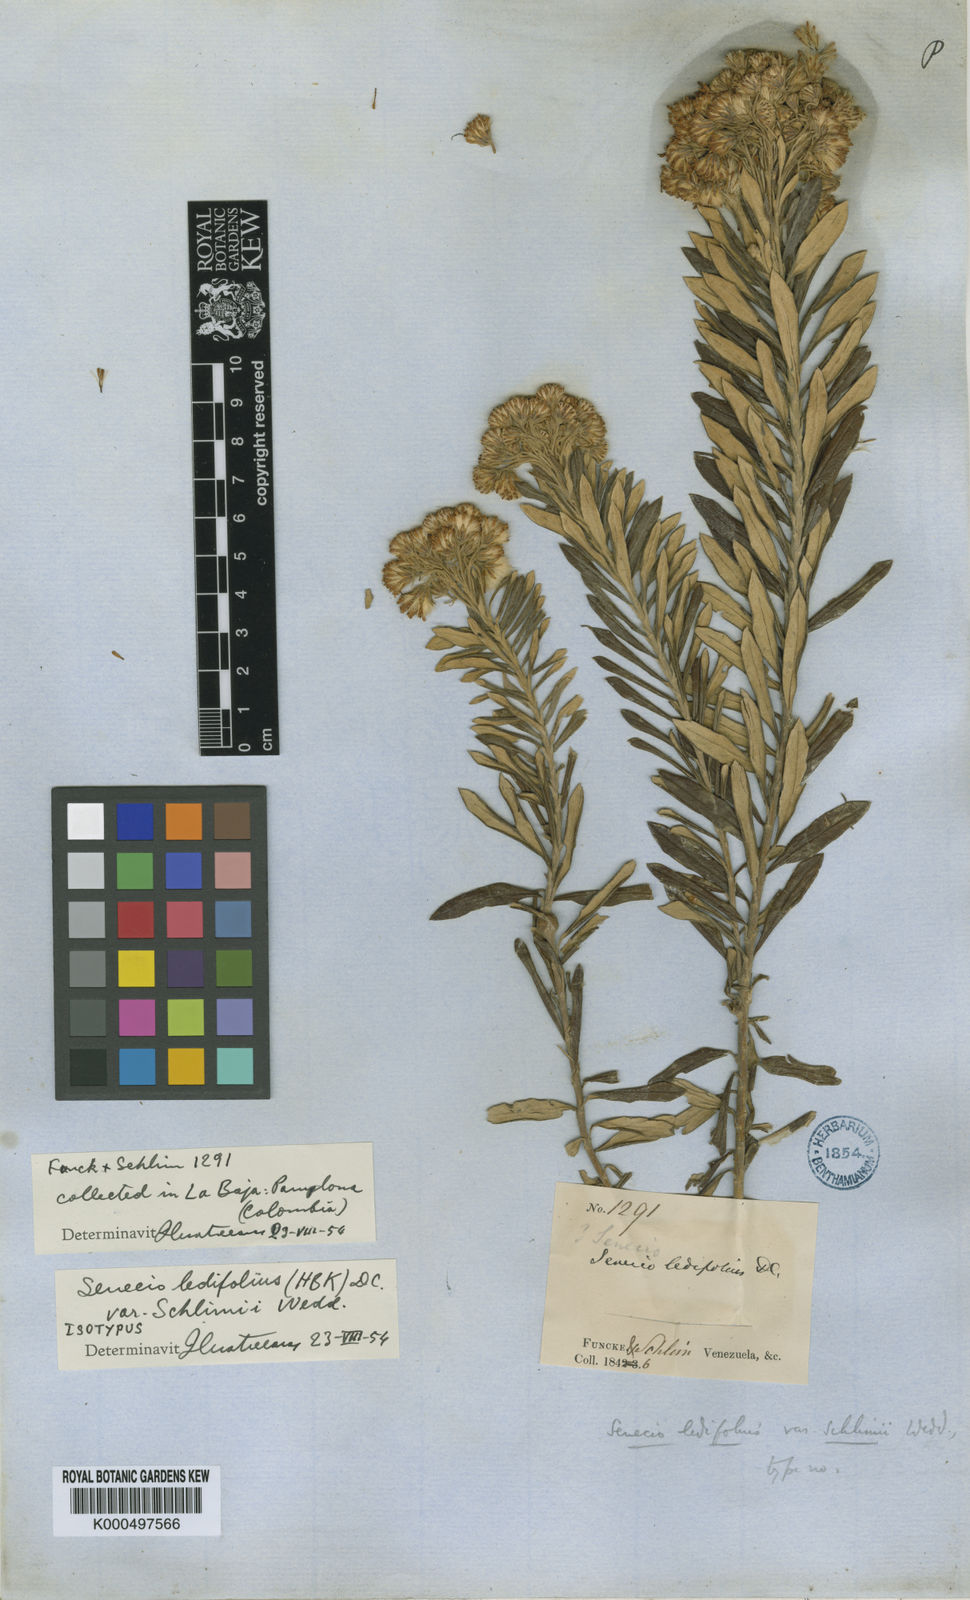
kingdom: Plantae
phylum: Tracheophyta
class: Magnoliopsida
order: Asterales
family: Asteraceae
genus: Monticalia
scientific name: Monticalia ledifolia
